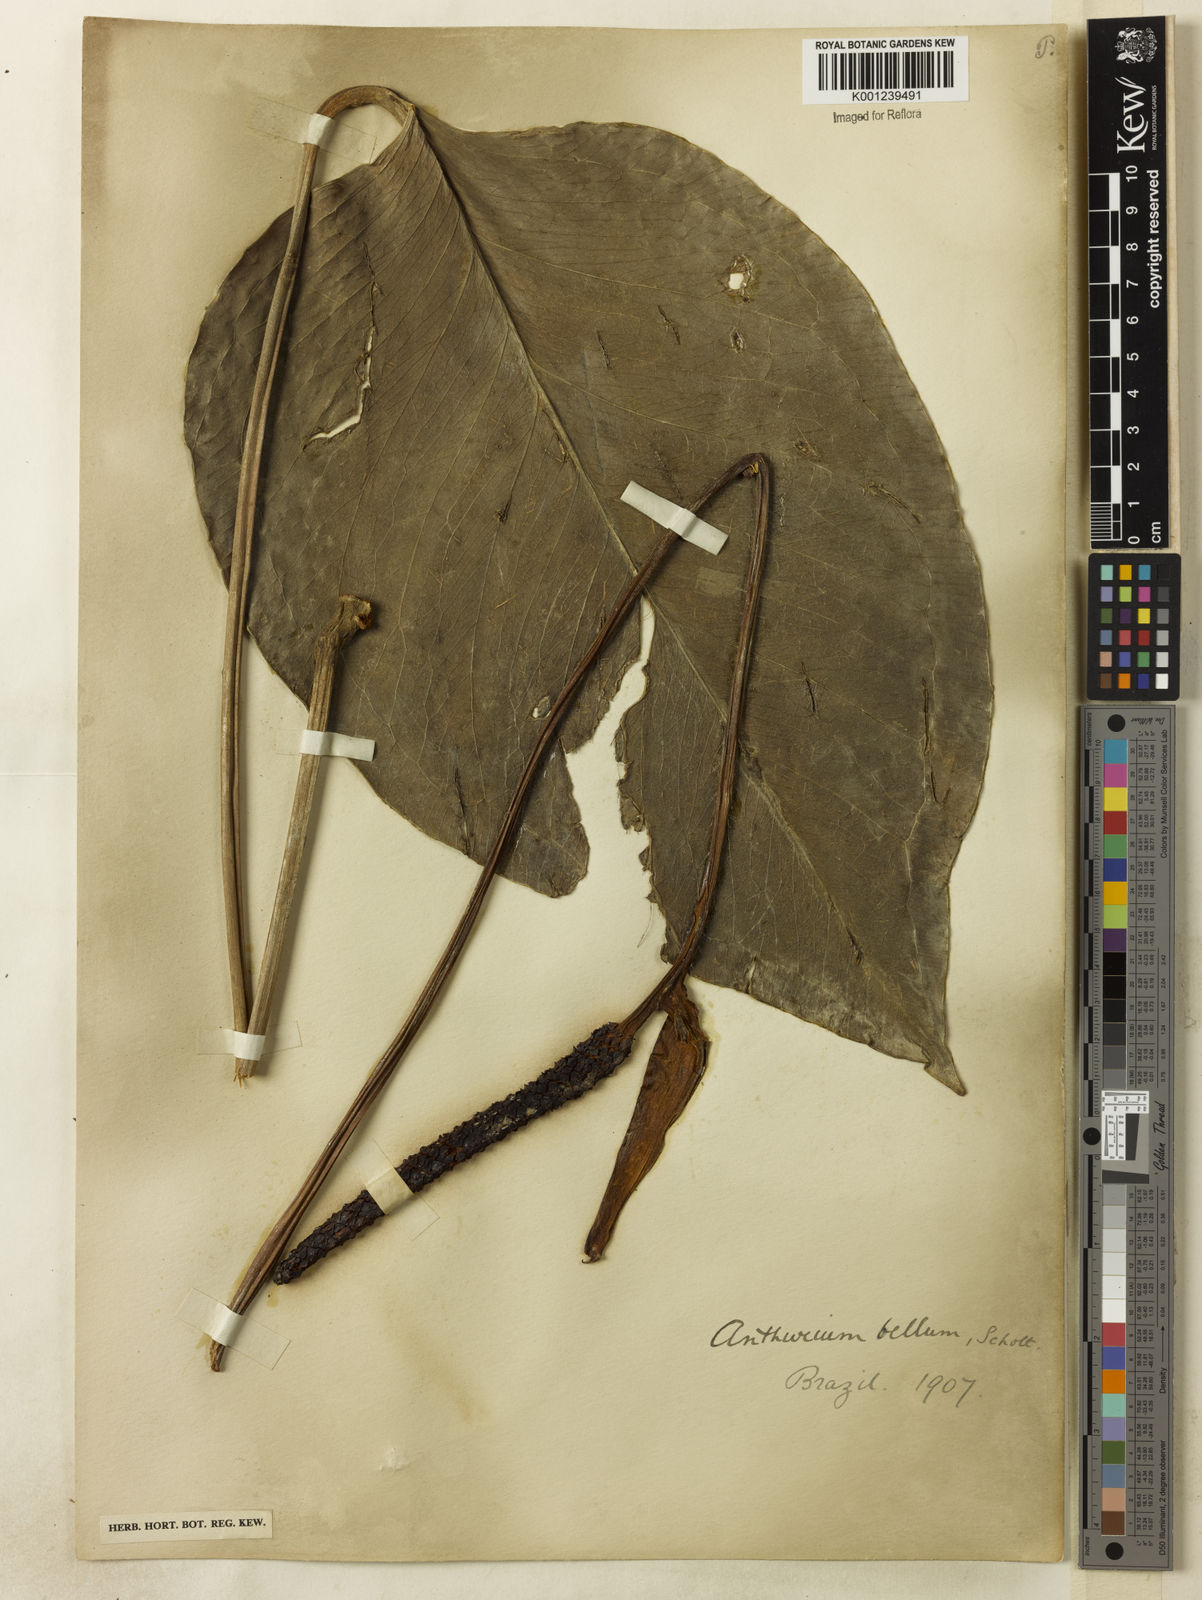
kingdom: Plantae
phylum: Tracheophyta
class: Liliopsida
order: Alismatales
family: Araceae
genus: Anthurium
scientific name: Anthurium bellum
